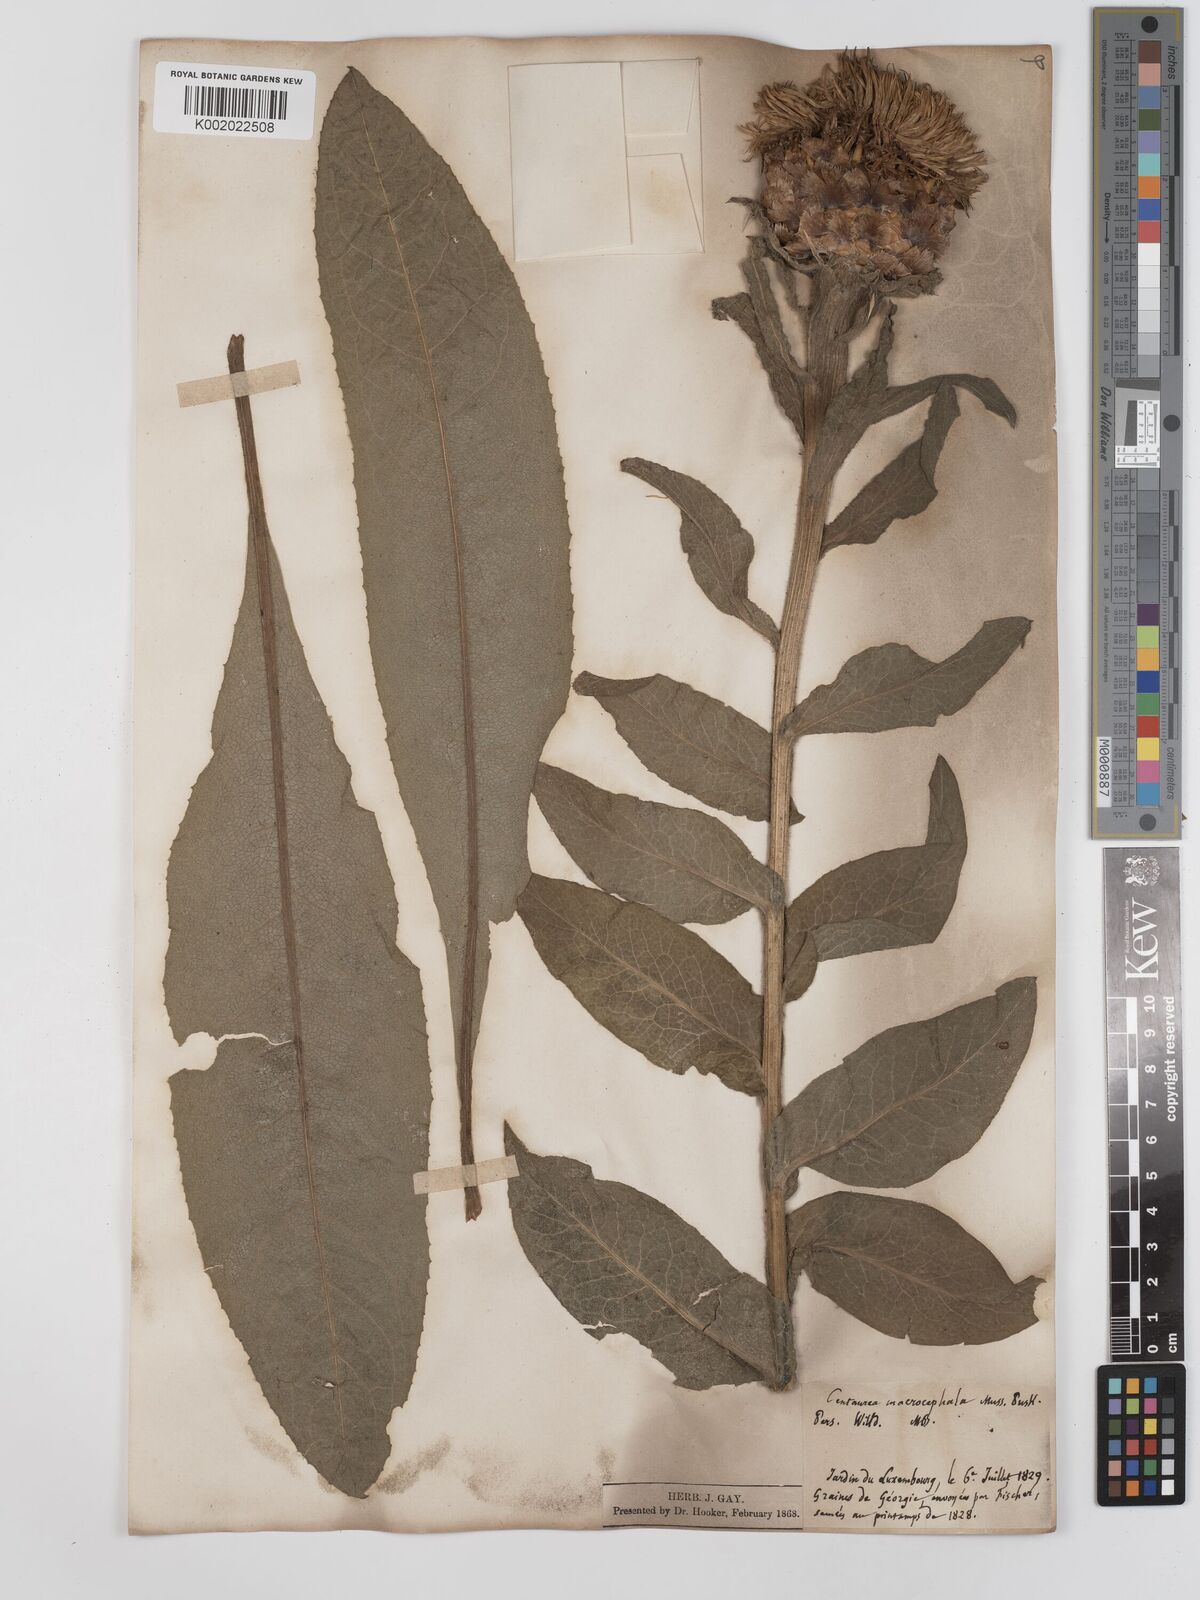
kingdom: Plantae
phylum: Tracheophyta
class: Magnoliopsida
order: Asterales
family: Asteraceae
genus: Centaurea
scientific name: Centaurea macrocephala
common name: Big-head knapweed
